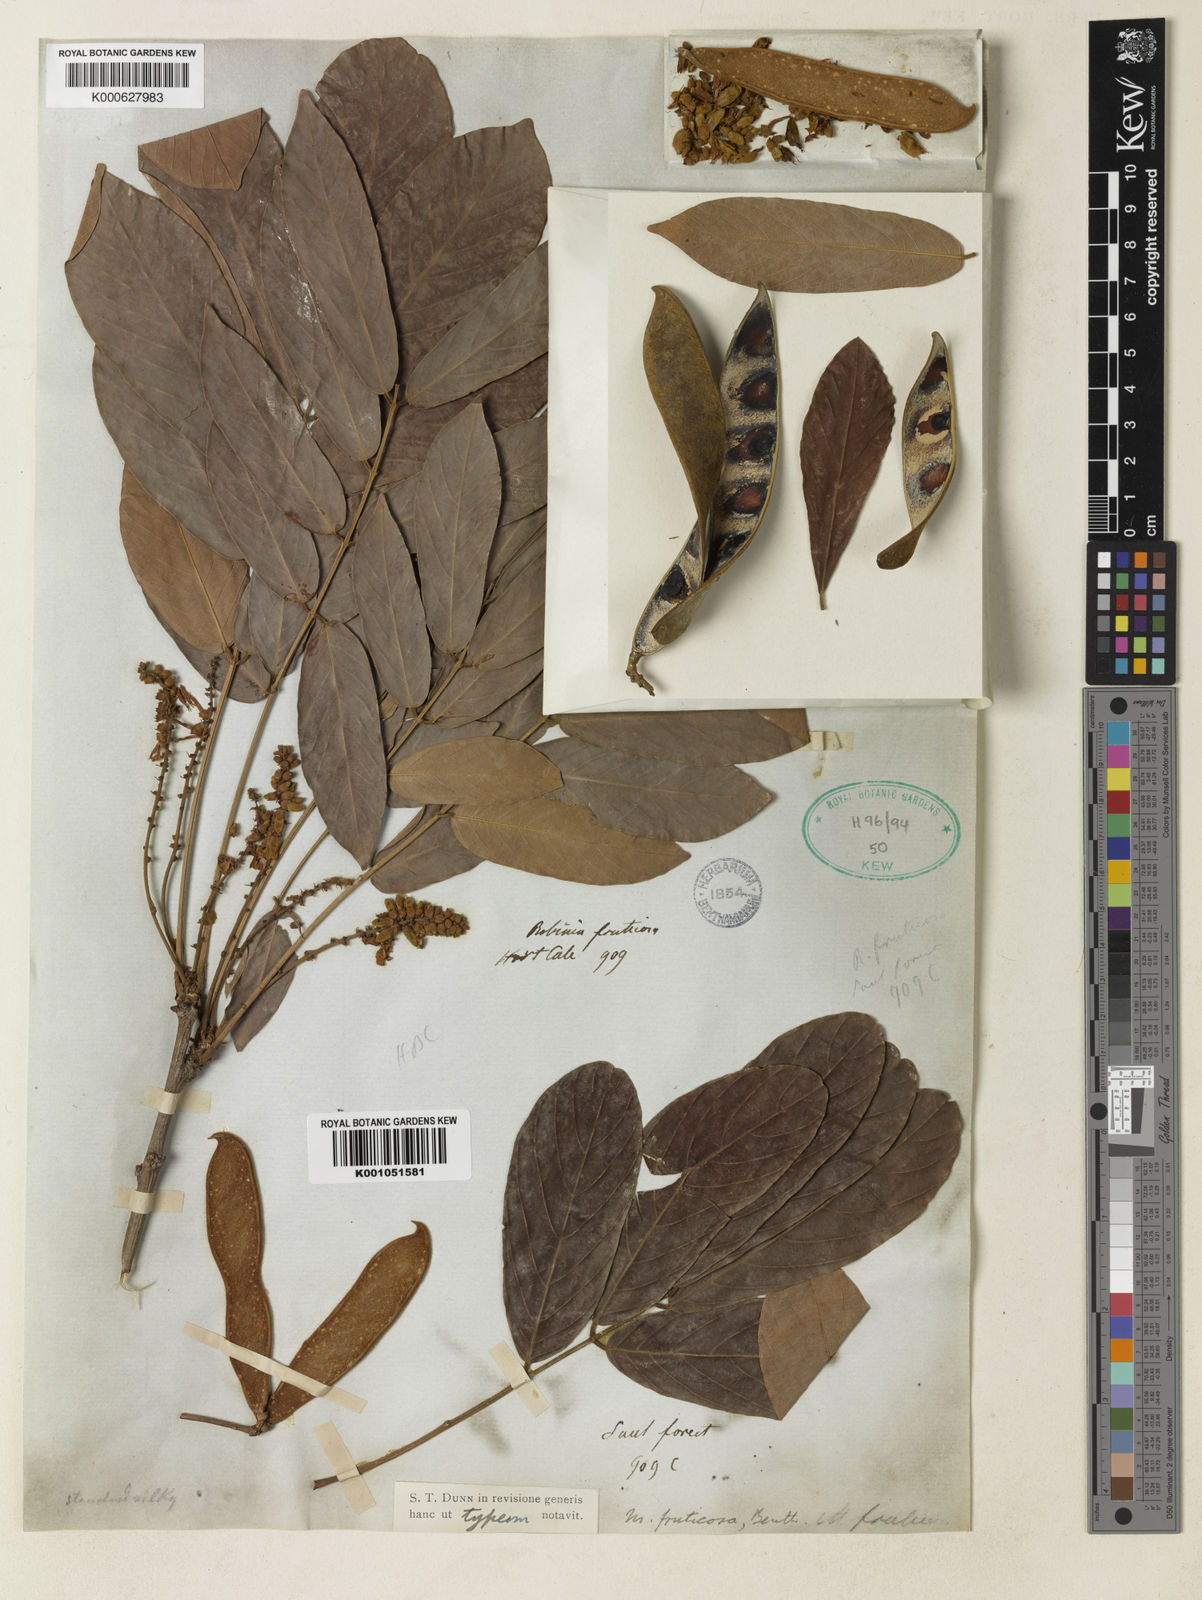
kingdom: Plantae
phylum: Tracheophyta
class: Magnoliopsida
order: Fabales
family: Fabaceae
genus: Millettia
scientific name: Millettia fruticosa
